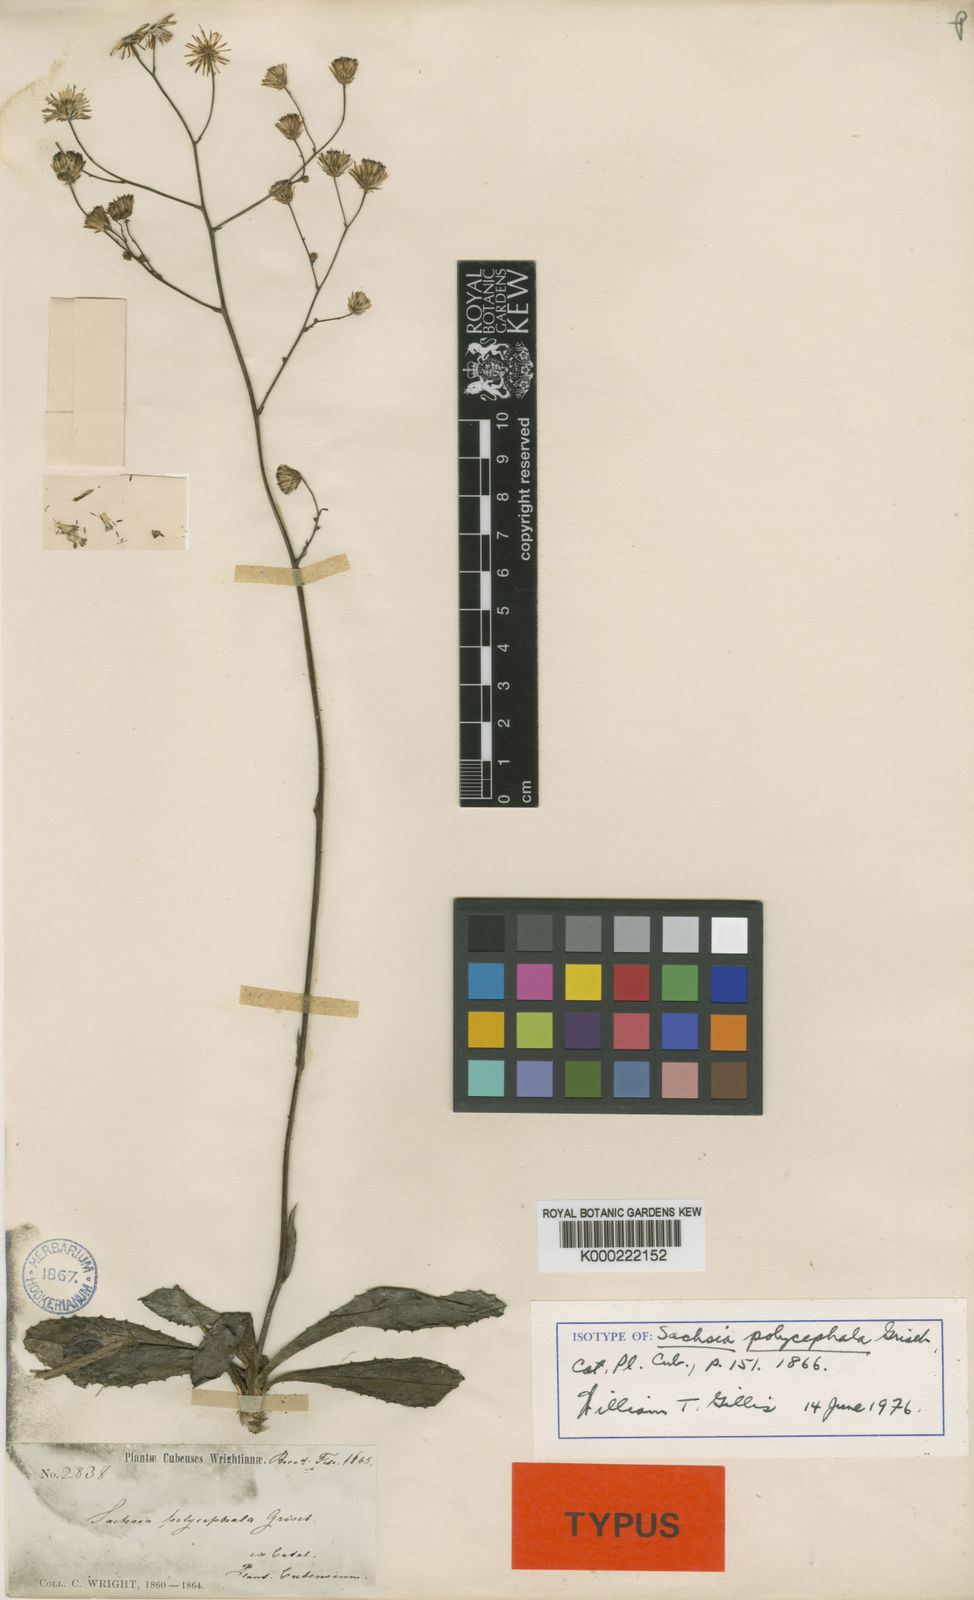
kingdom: Plantae
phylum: Tracheophyta
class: Magnoliopsida
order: Asterales
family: Asteraceae
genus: Sachsia
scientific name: Sachsia polycephala
